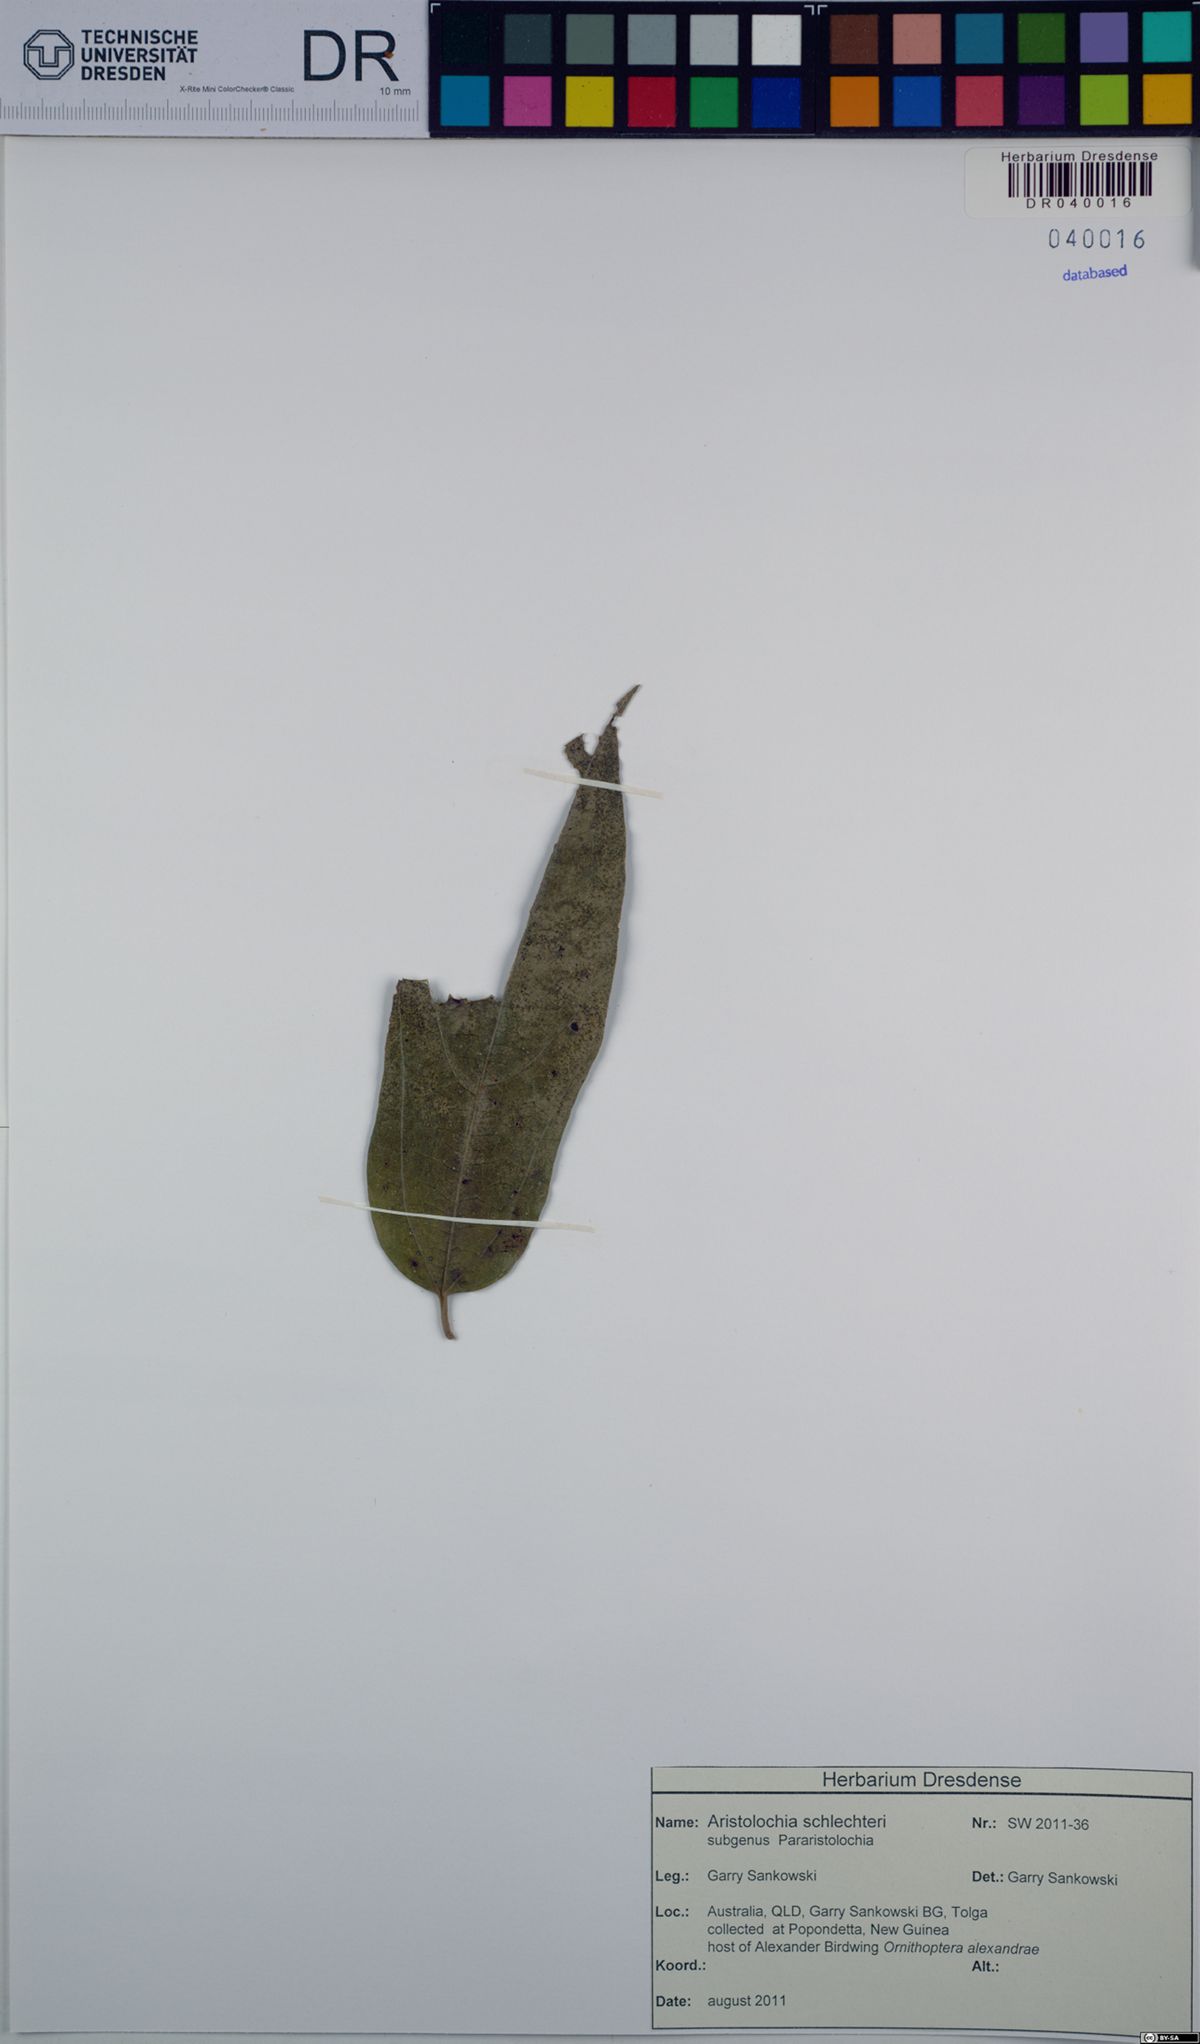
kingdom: Plantae
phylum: Tracheophyta
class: Magnoliopsida
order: Piperales
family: Aristolochiaceae
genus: Aristolochia
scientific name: Aristolochia schlechteri
